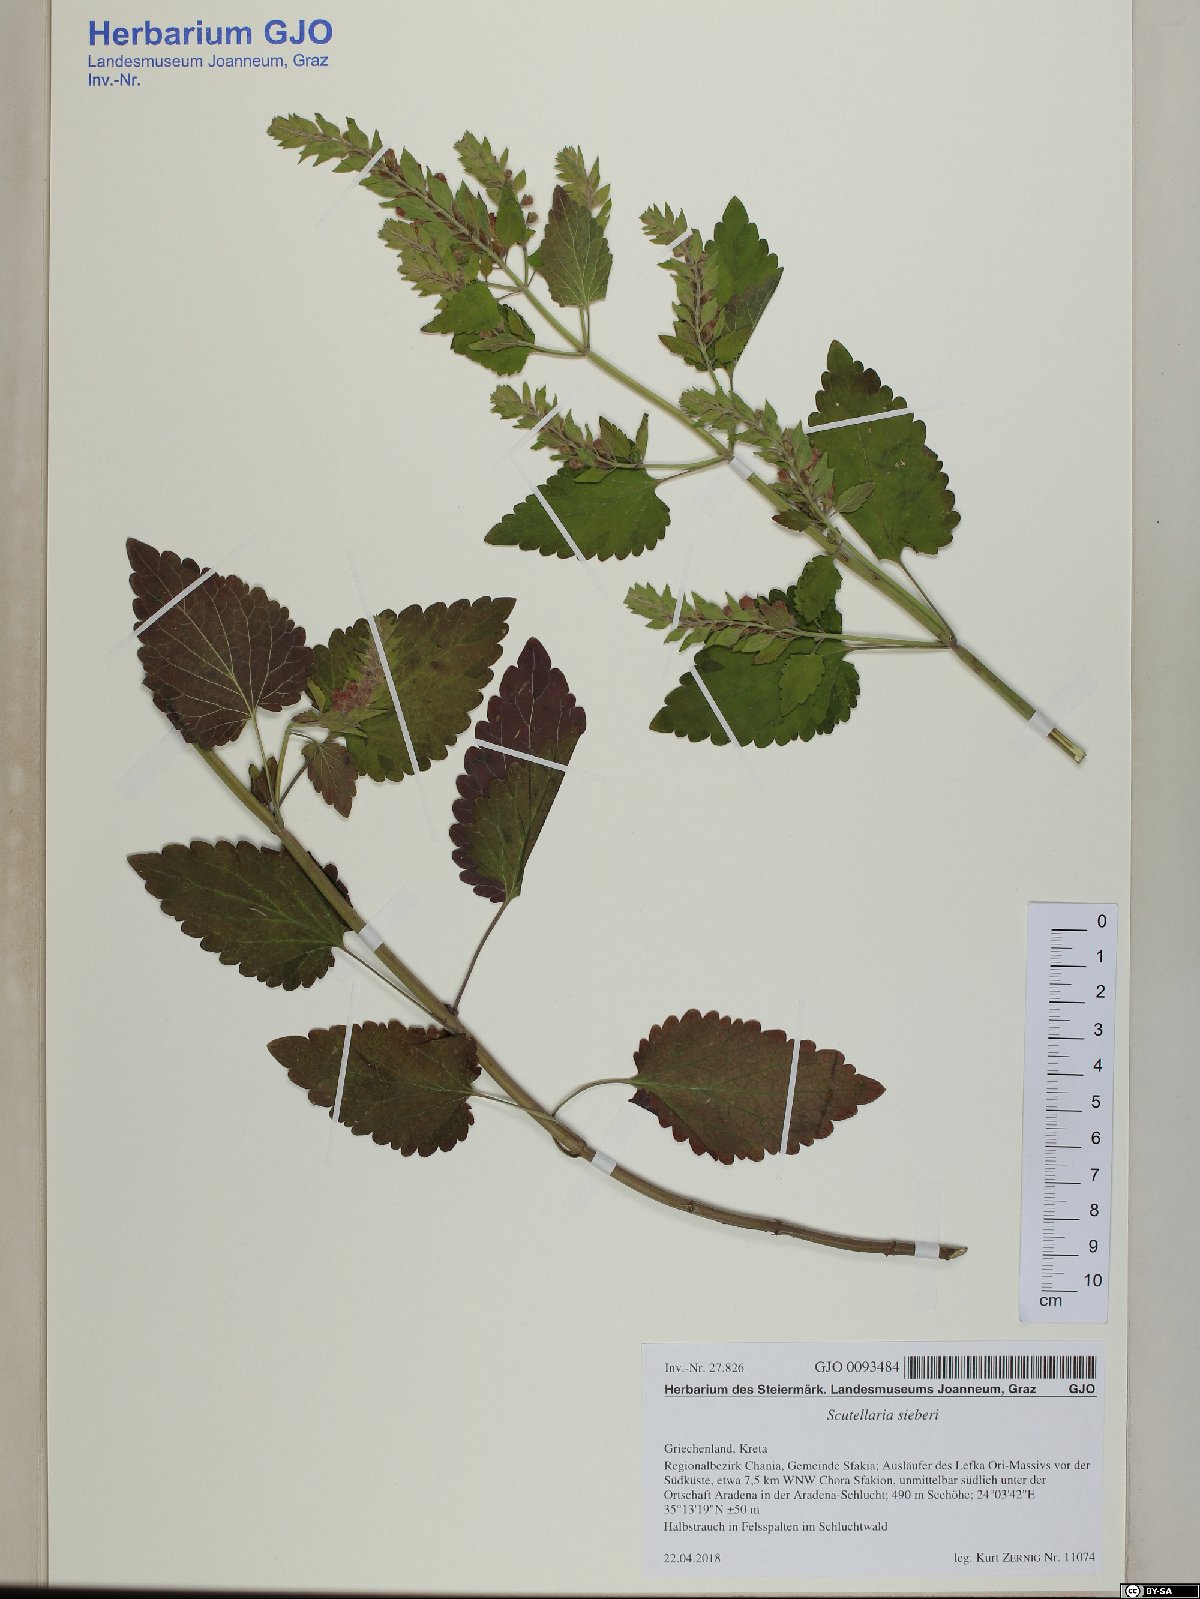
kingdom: Plantae
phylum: Tracheophyta
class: Magnoliopsida
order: Lamiales
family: Lamiaceae
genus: Scutellaria
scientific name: Scutellaria sieberi
